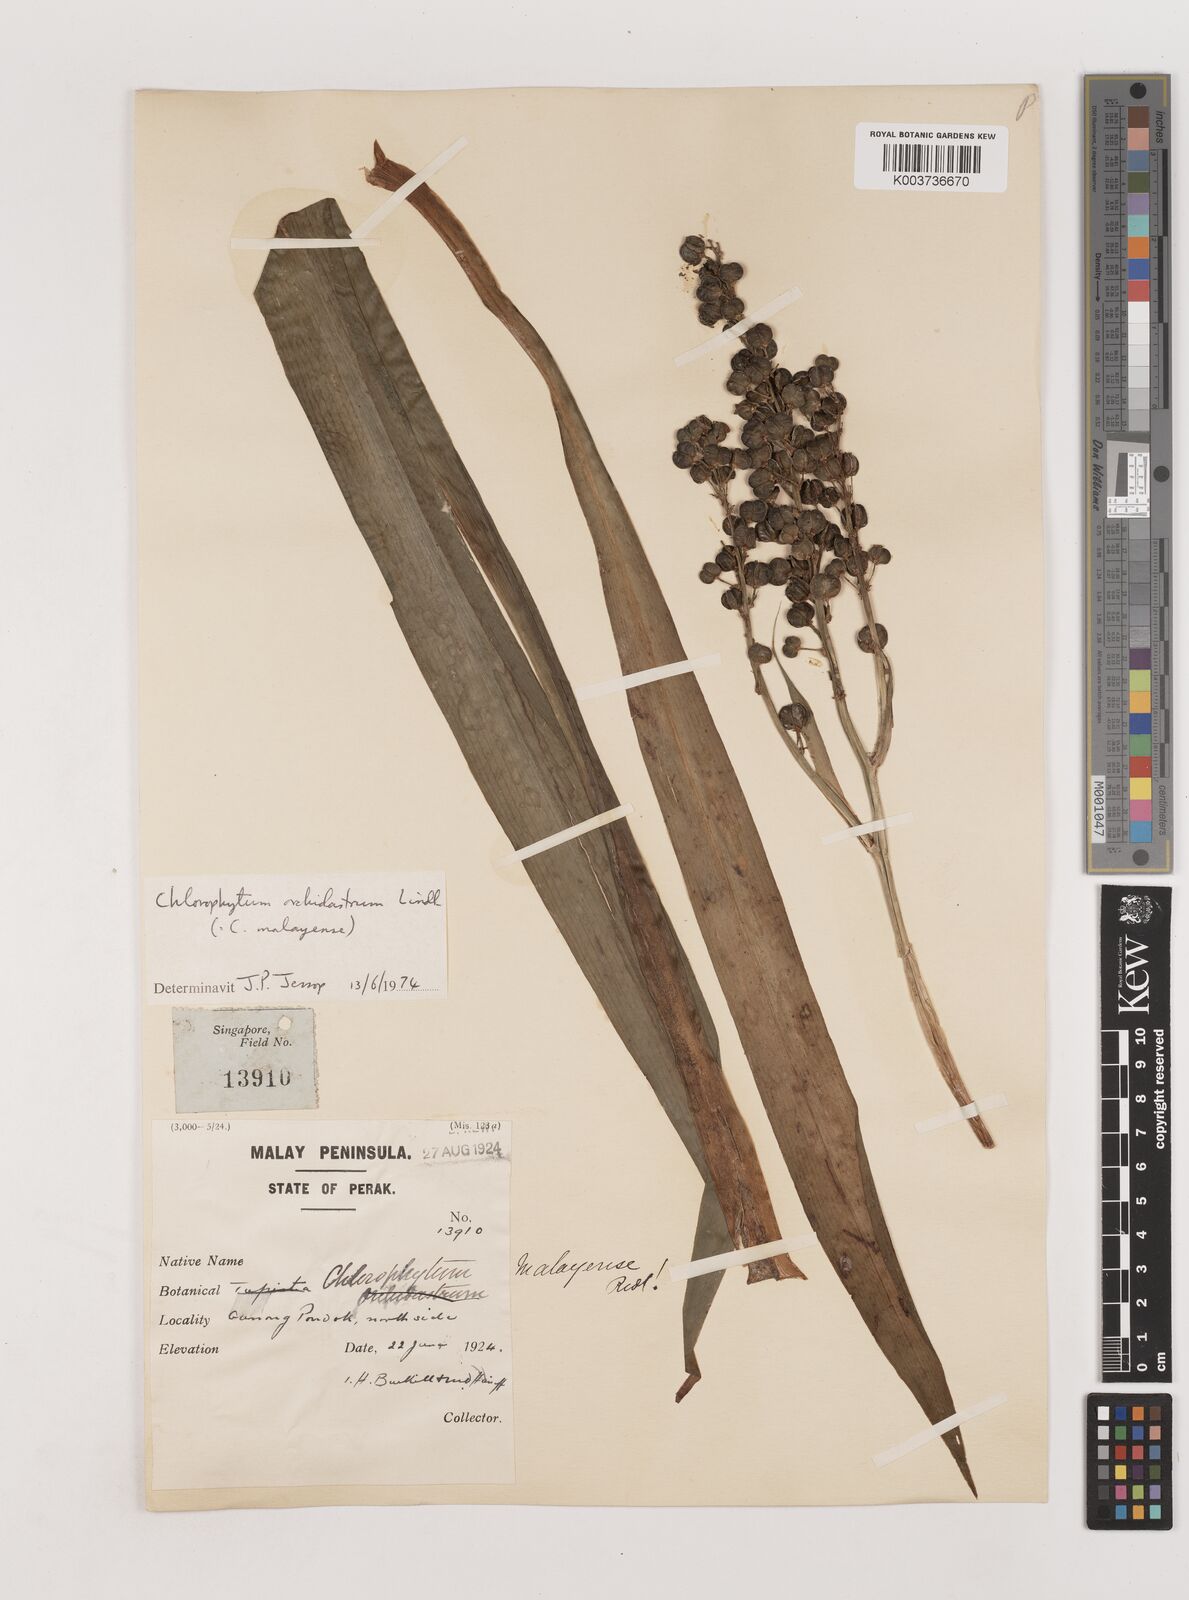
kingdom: Plantae
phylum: Tracheophyta
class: Liliopsida
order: Asparagales
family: Asparagaceae
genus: Chlorophytum
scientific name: Chlorophytum malayense
